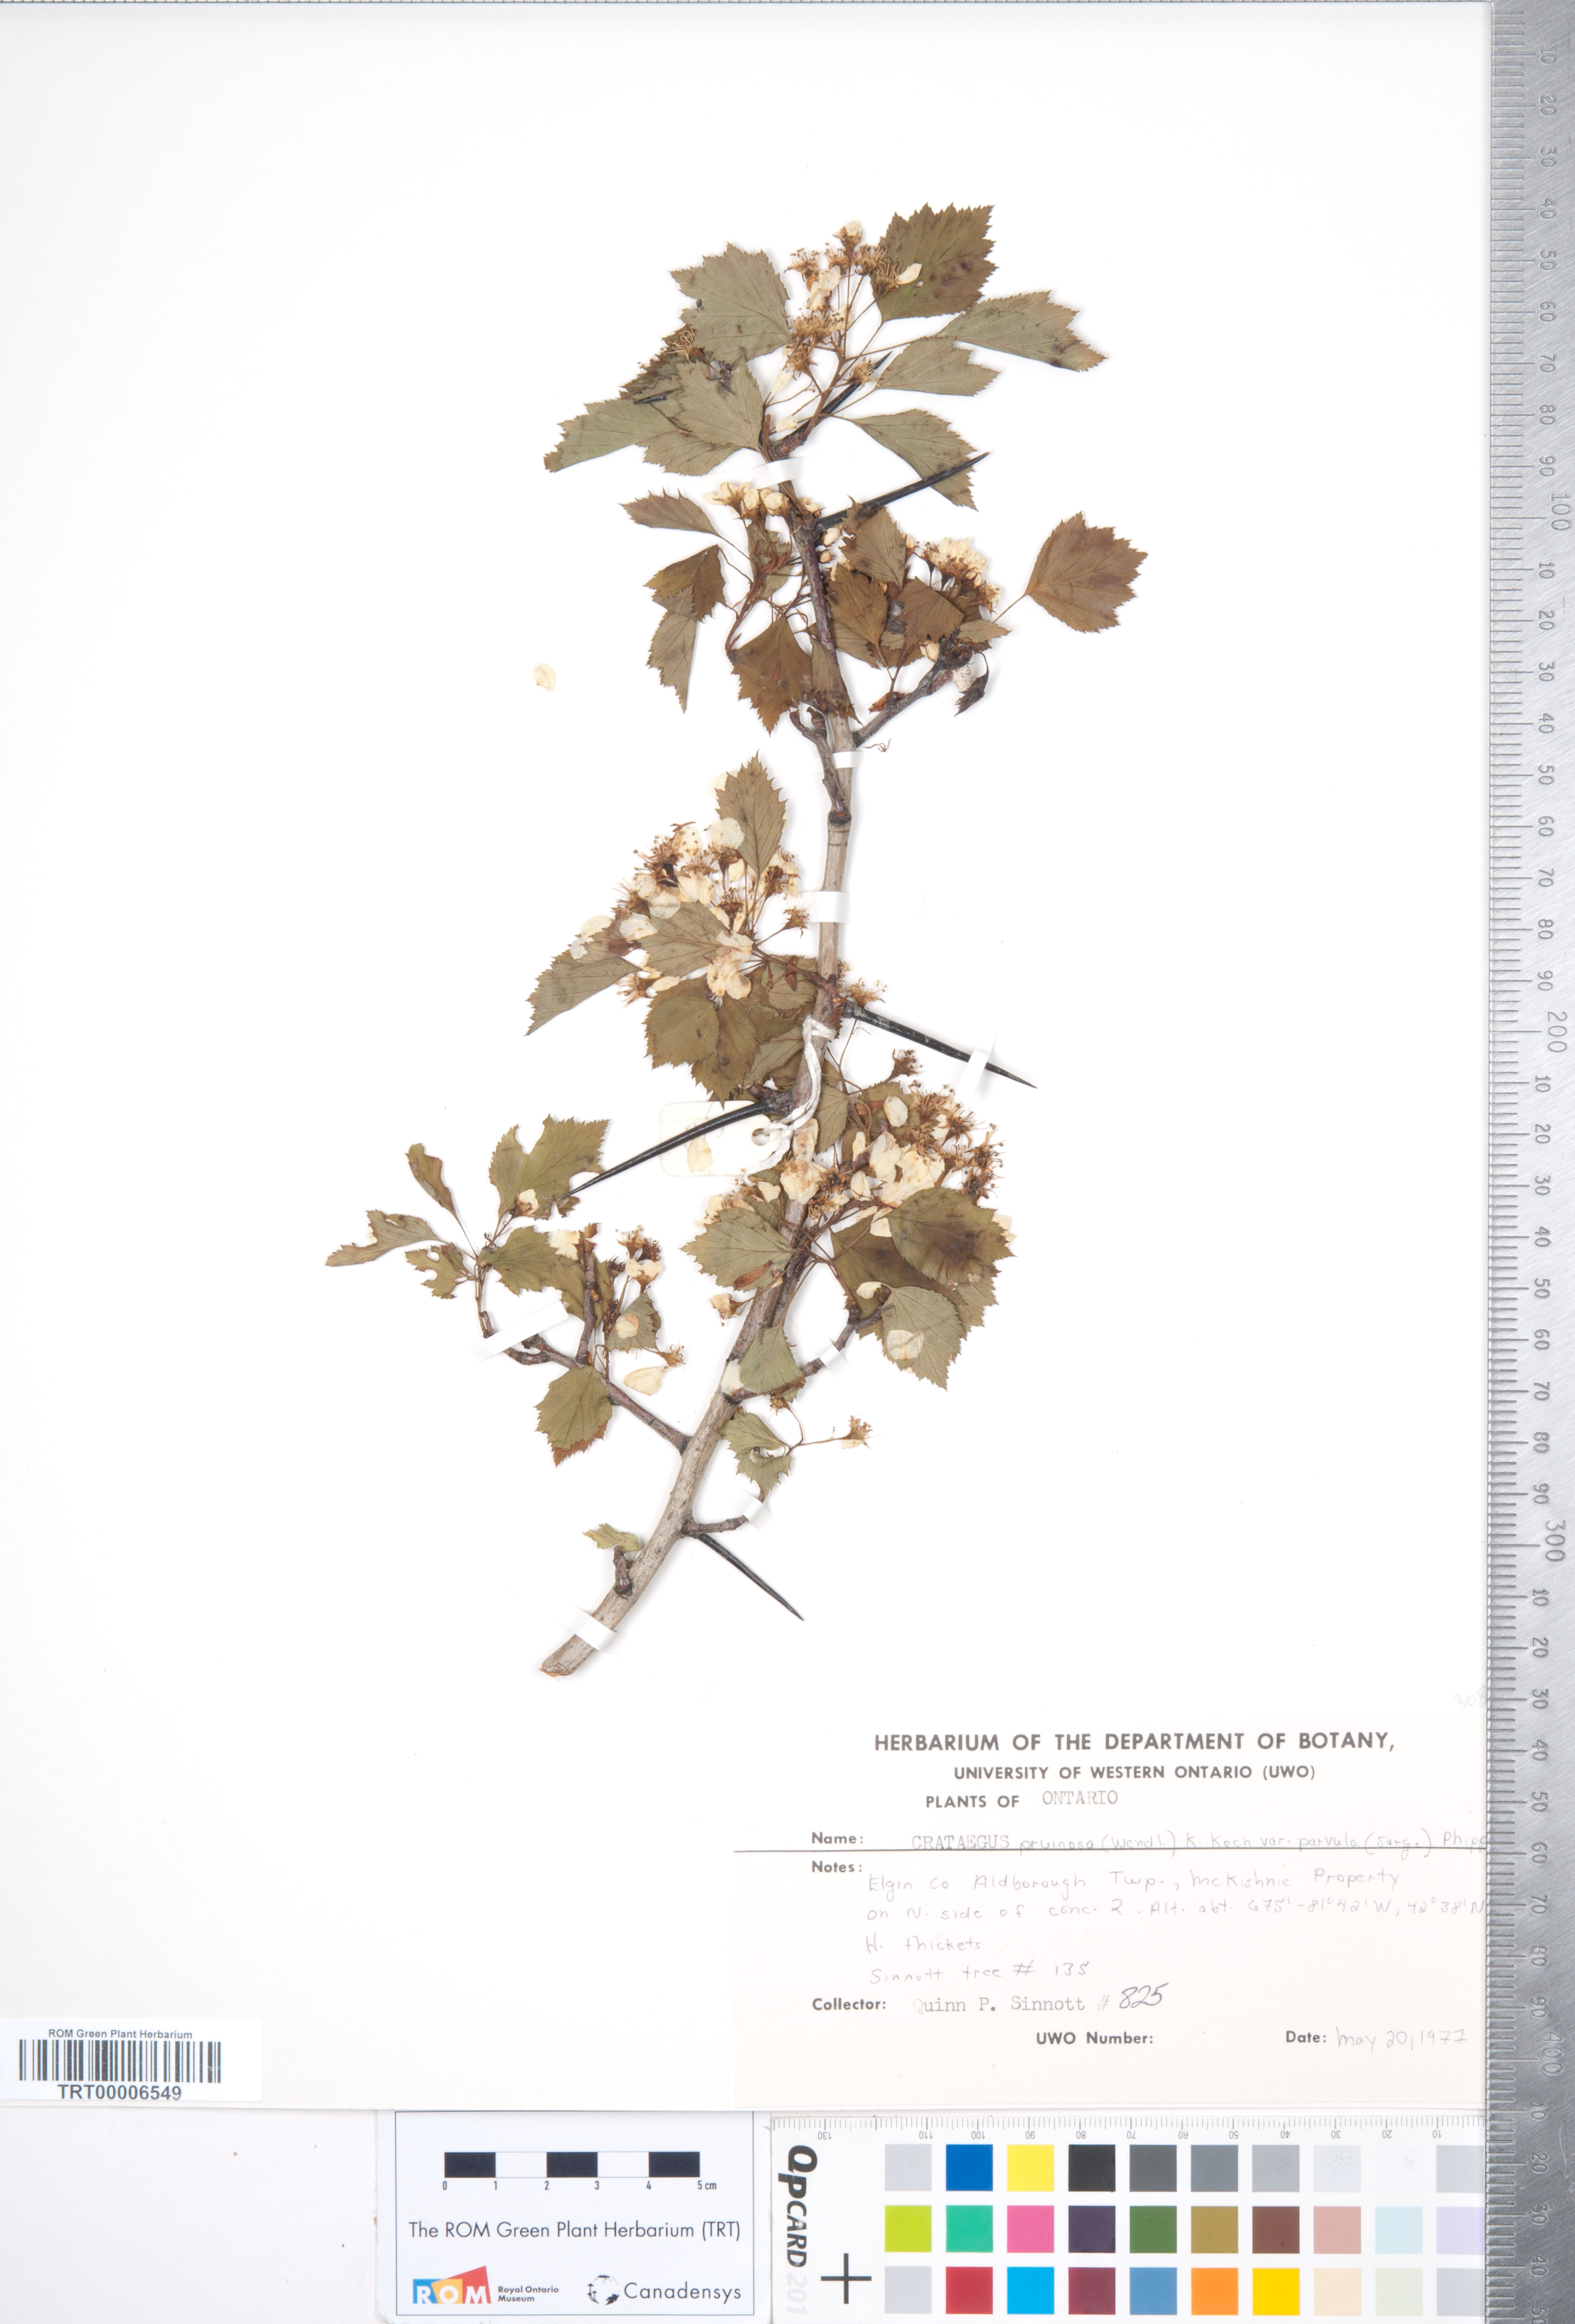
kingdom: Plantae
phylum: Tracheophyta
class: Magnoliopsida
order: Rosales
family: Rosaceae
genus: Crataegus
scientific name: Crataegus pruinosa
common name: Waxy-fruit hawthorn
